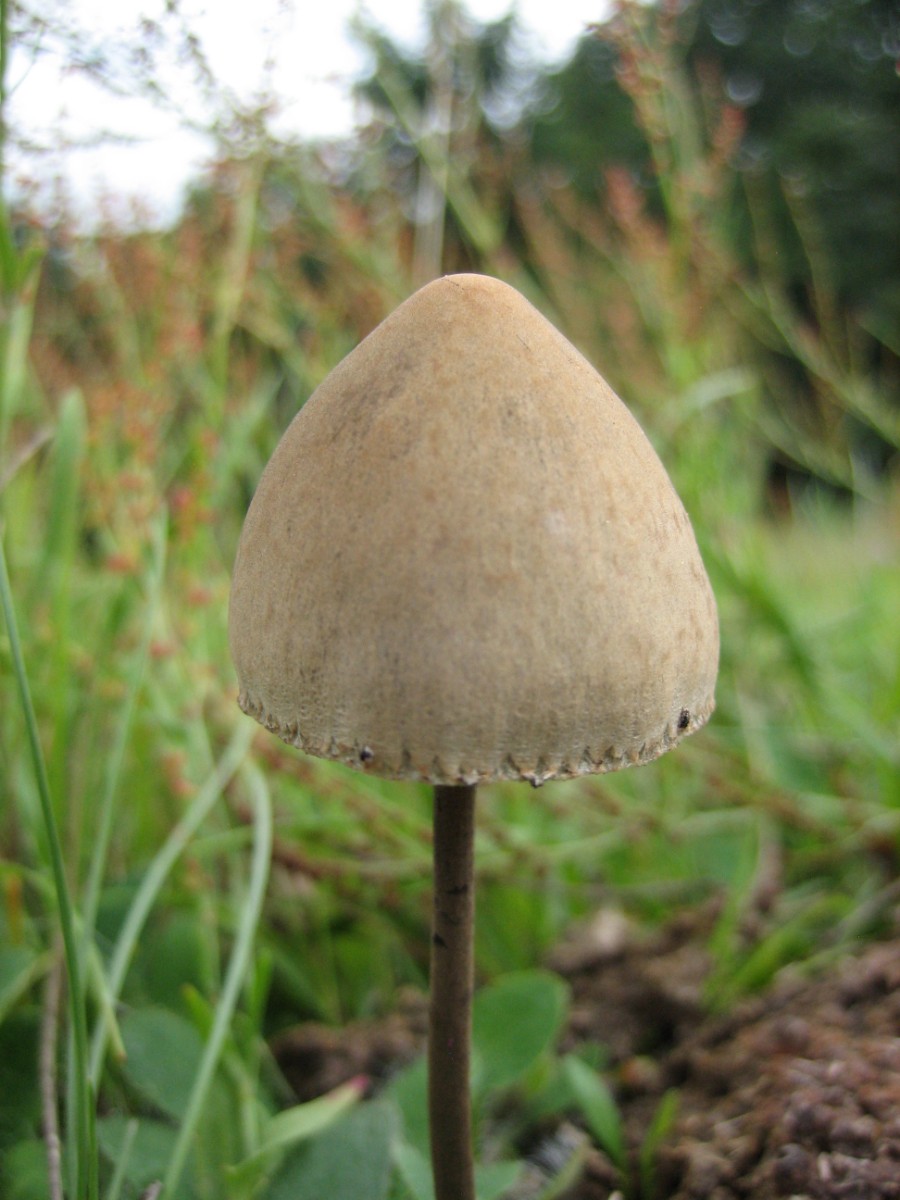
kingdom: Fungi
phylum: Basidiomycota
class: Agaricomycetes
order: Agaricales
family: Bolbitiaceae
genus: Panaeolus
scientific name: Panaeolus papilionaceus
